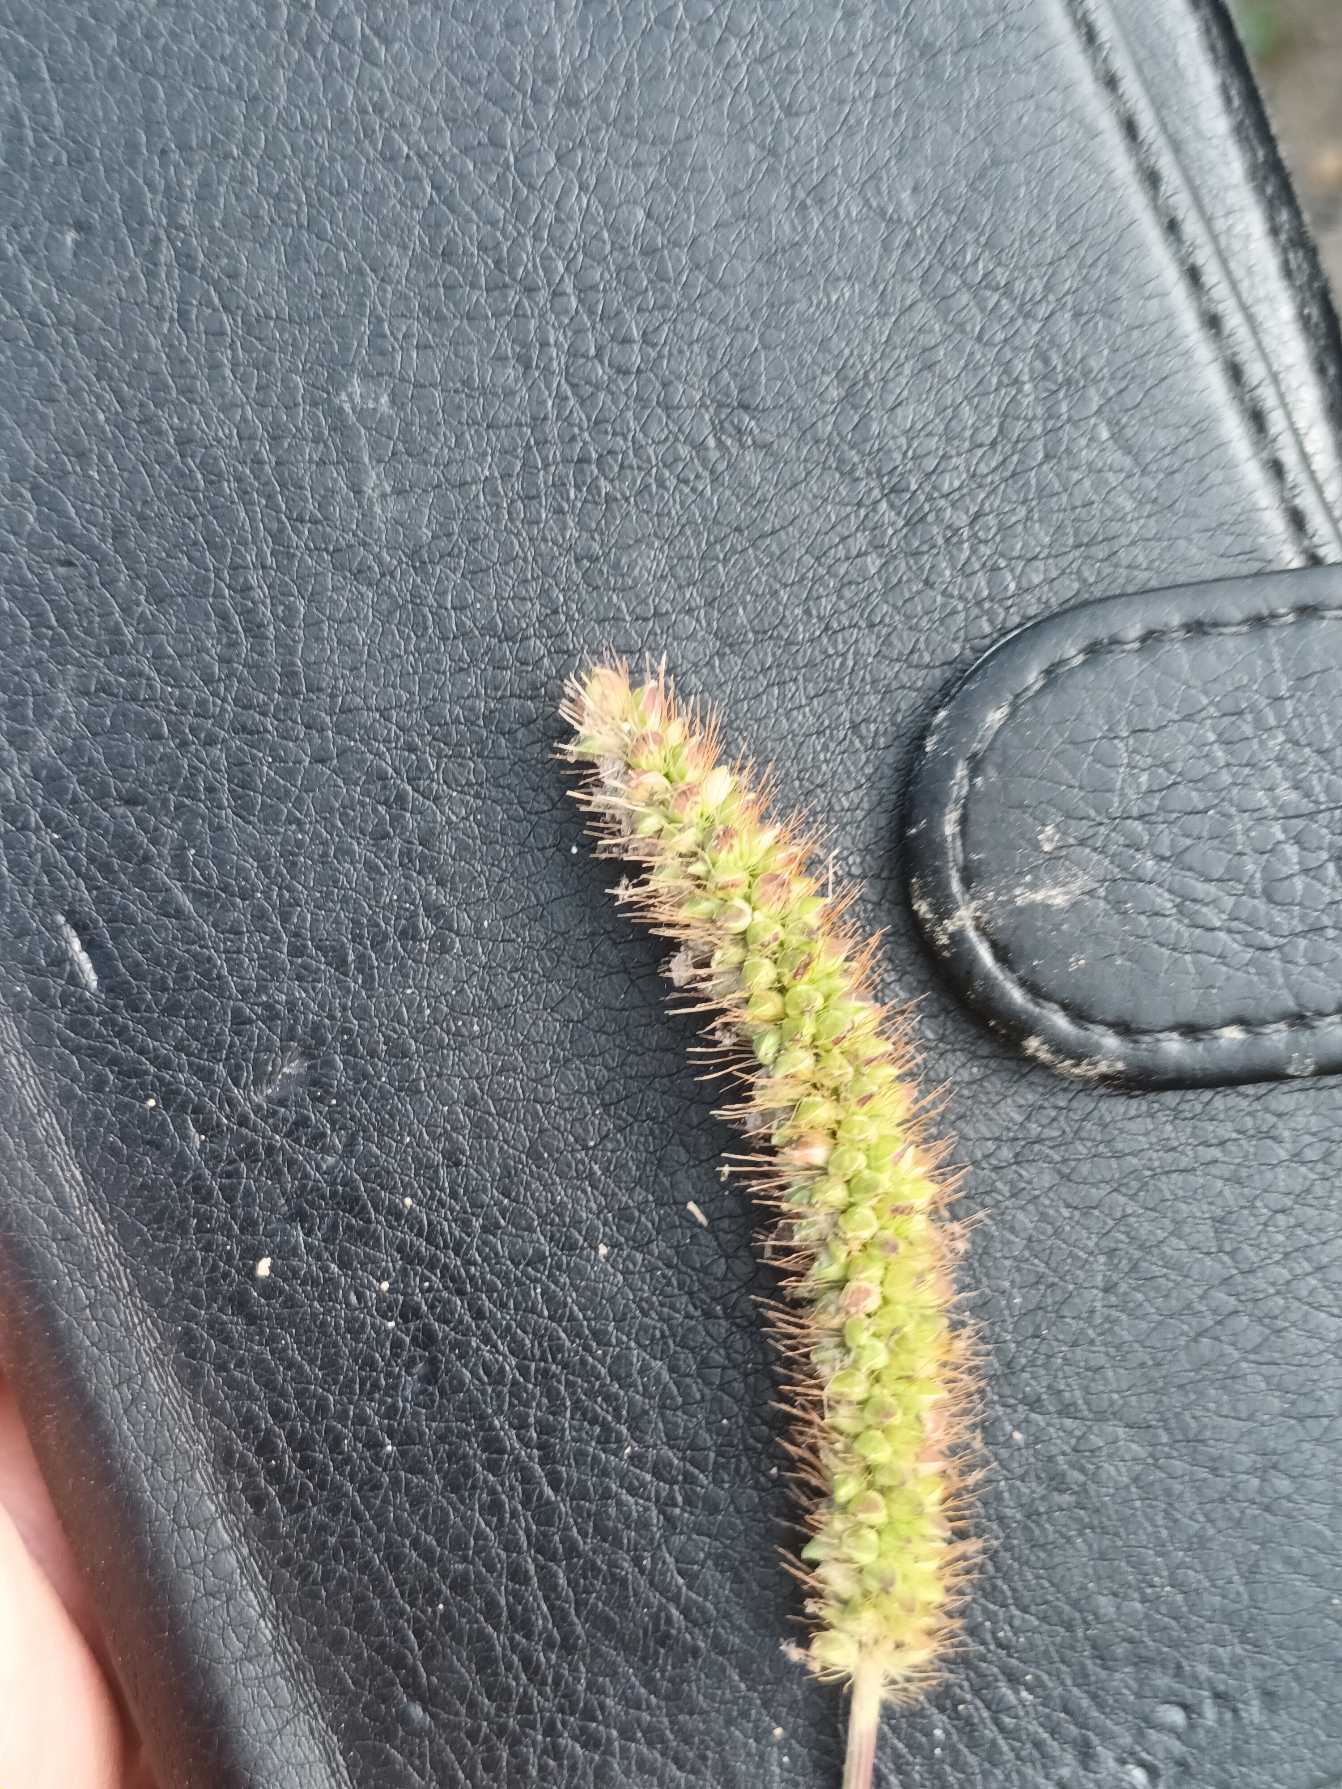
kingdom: Plantae
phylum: Tracheophyta
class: Liliopsida
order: Poales
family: Poaceae
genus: Setaria
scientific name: Setaria pumila
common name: Blågrøn skærmaks
